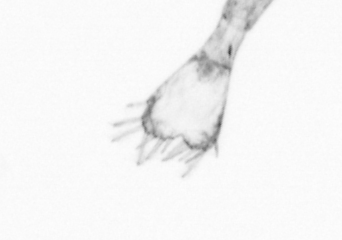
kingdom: Animalia
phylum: Arthropoda
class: Copepoda
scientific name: Copepoda
